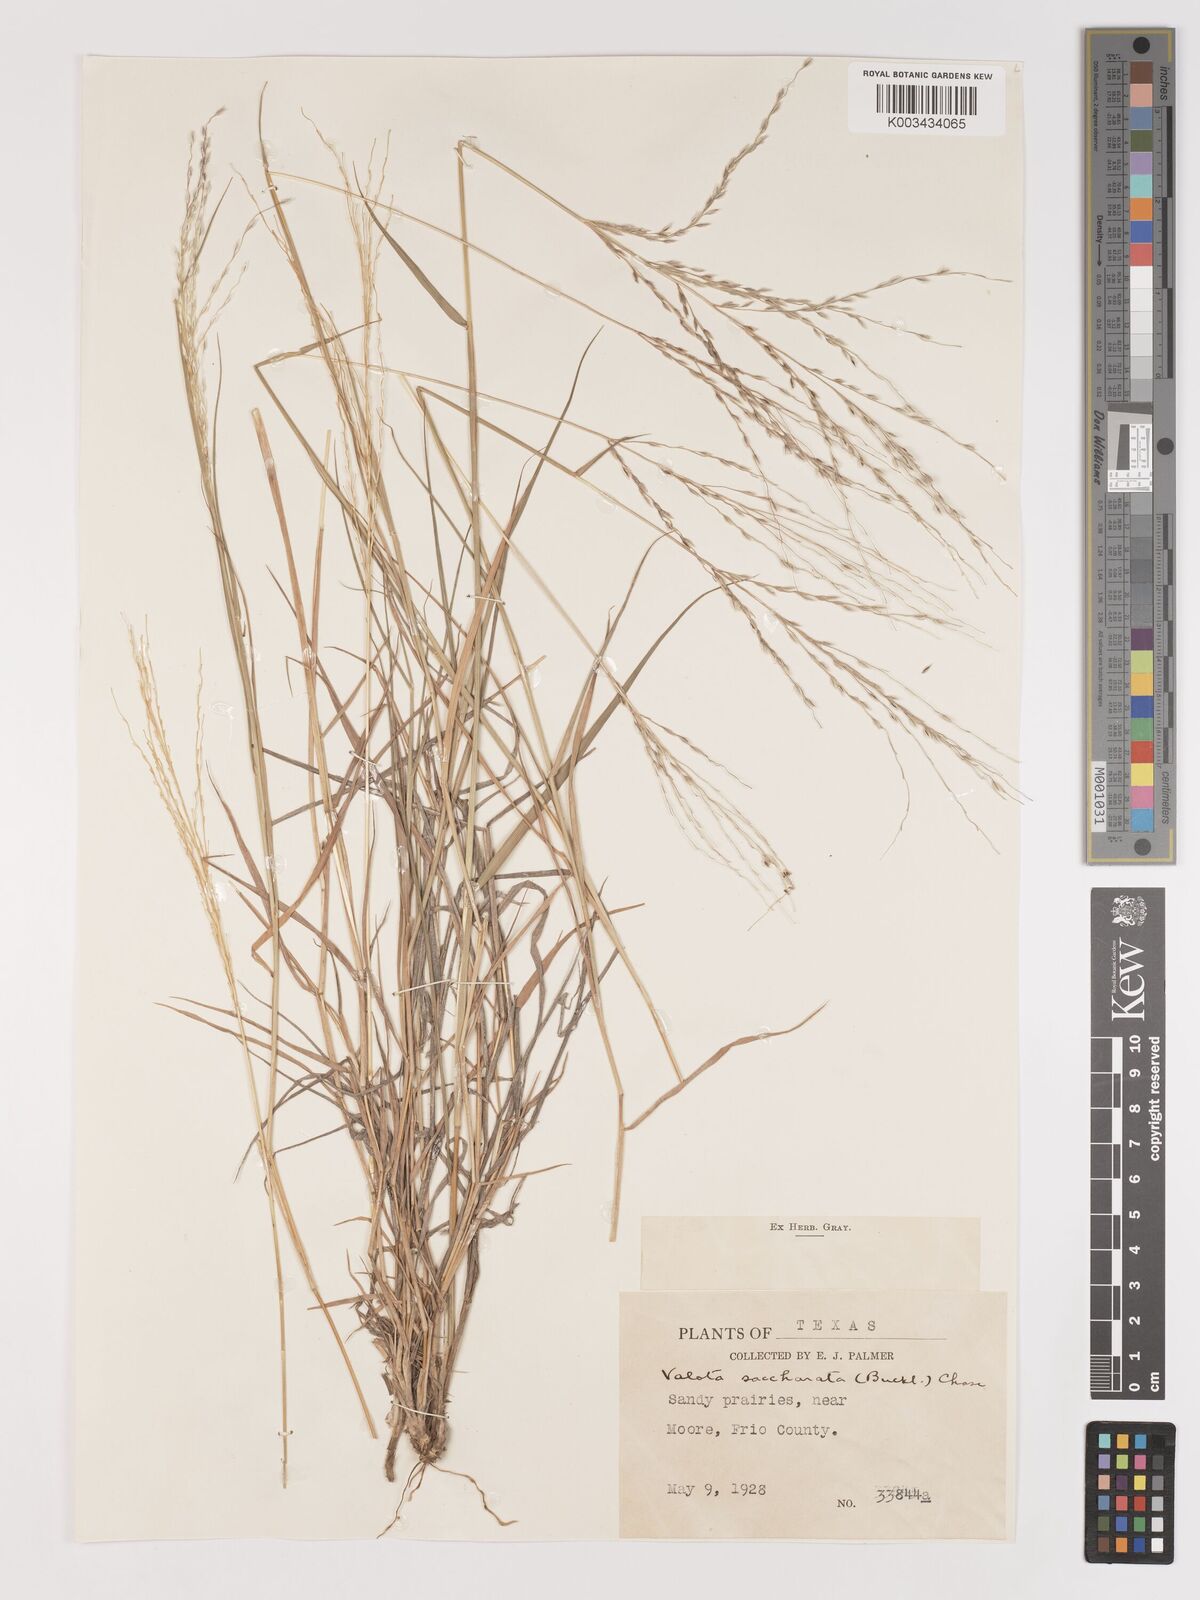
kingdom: Plantae
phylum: Tracheophyta
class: Liliopsida
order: Poales
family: Poaceae
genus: Digitaria
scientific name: Digitaria californica
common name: Arizona cottontop
